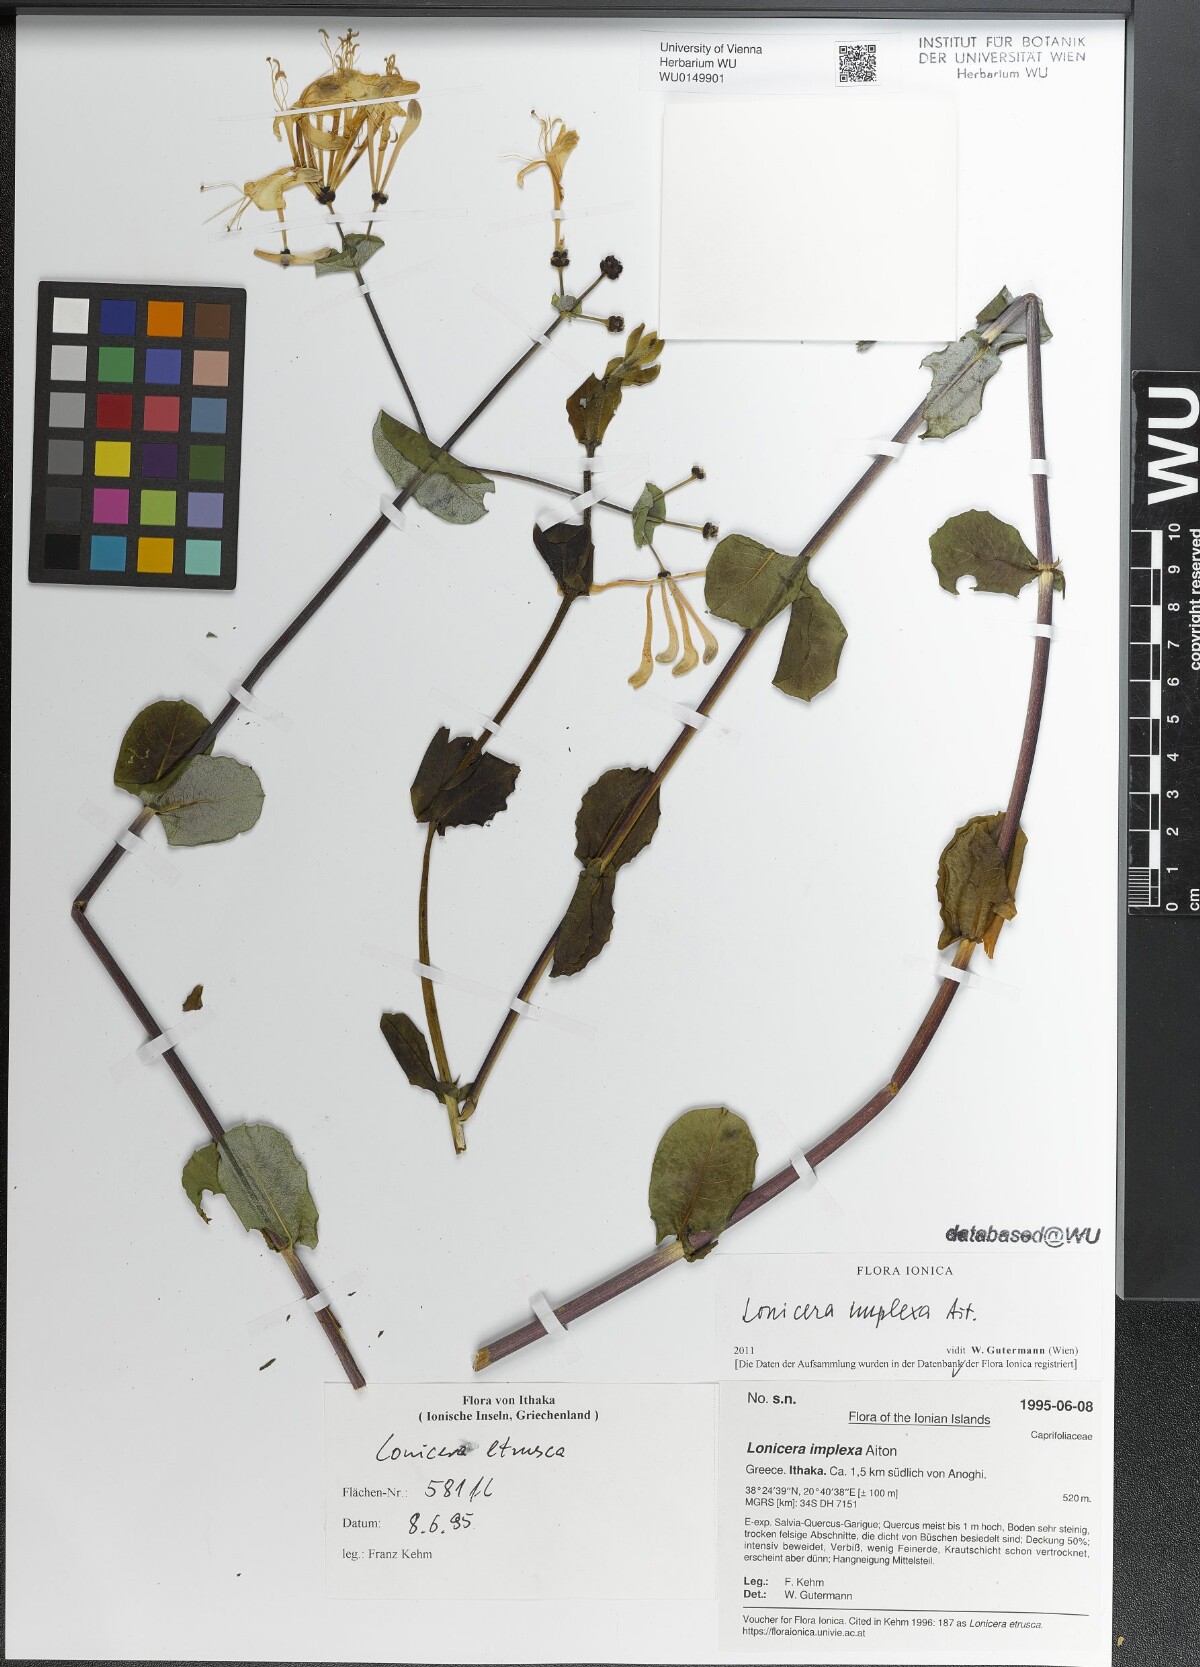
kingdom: Plantae
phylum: Tracheophyta
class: Magnoliopsida
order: Dipsacales
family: Caprifoliaceae
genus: Lonicera
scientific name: Lonicera implexa
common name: Minorca honeysuckle
